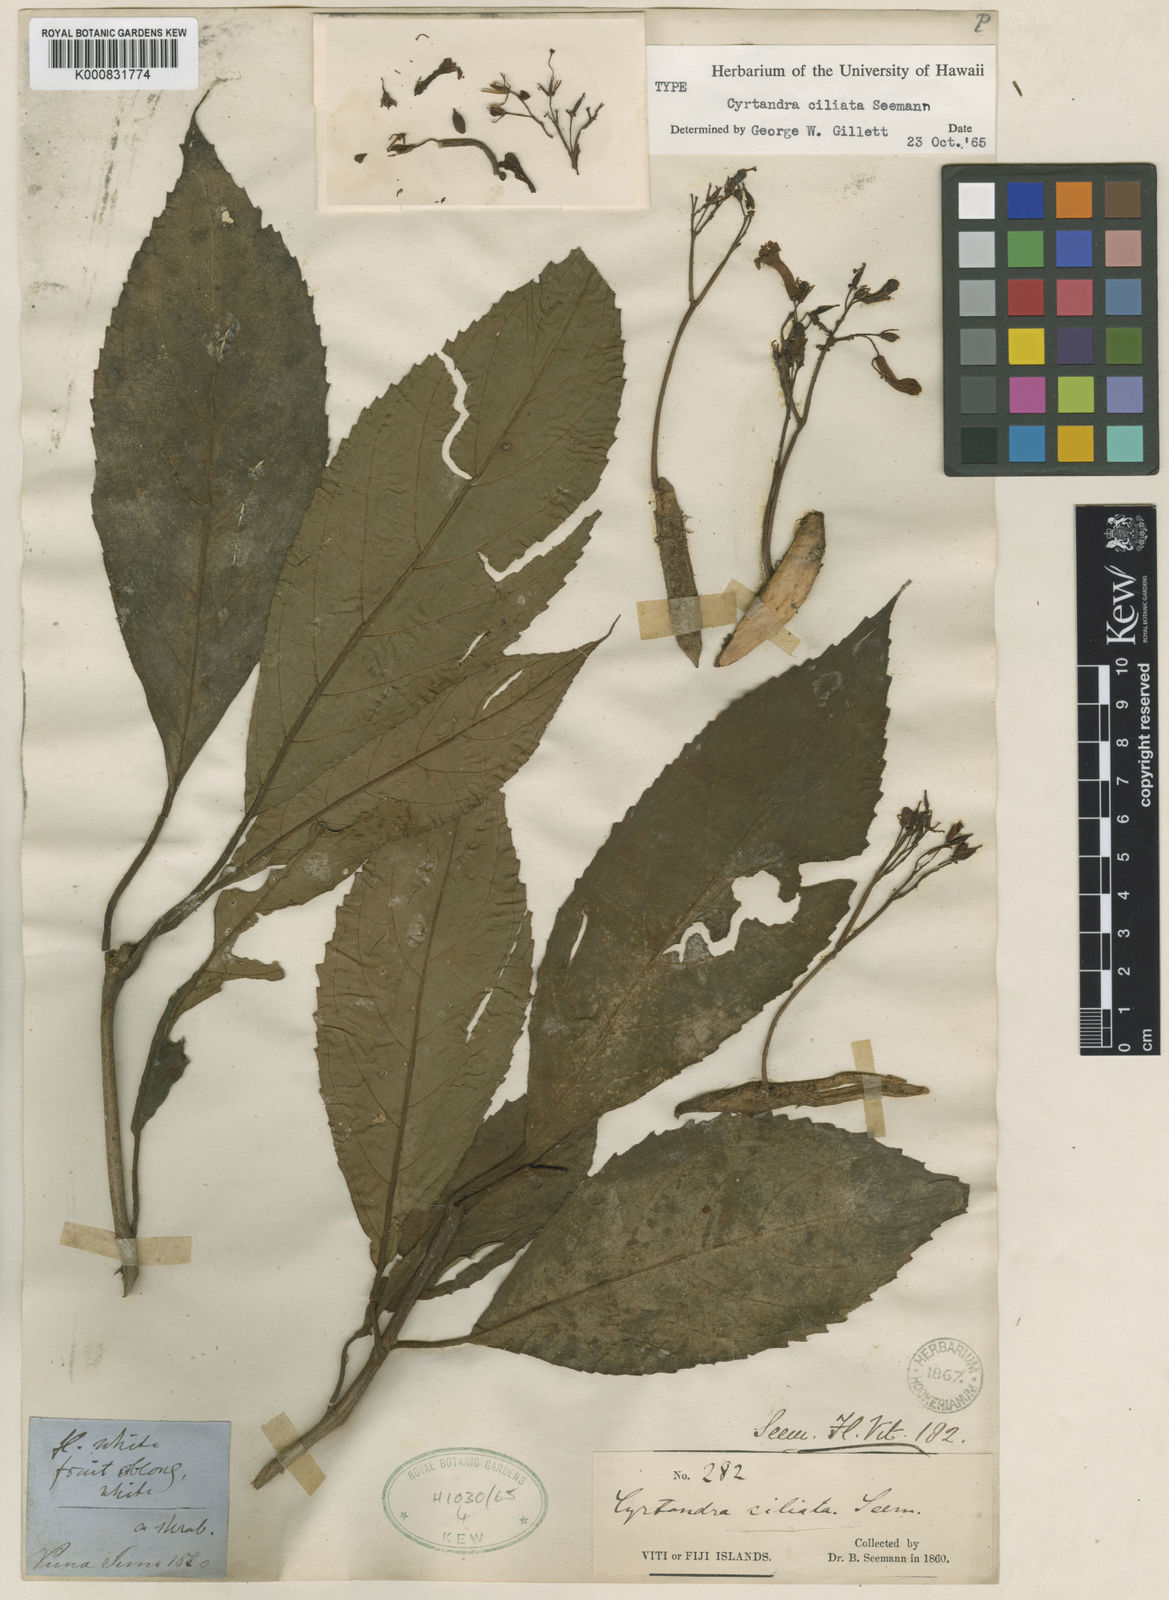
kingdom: Plantae
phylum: Tracheophyta
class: Magnoliopsida
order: Lamiales
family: Gesneriaceae
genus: Cyrtandra
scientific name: Cyrtandra ciliata
